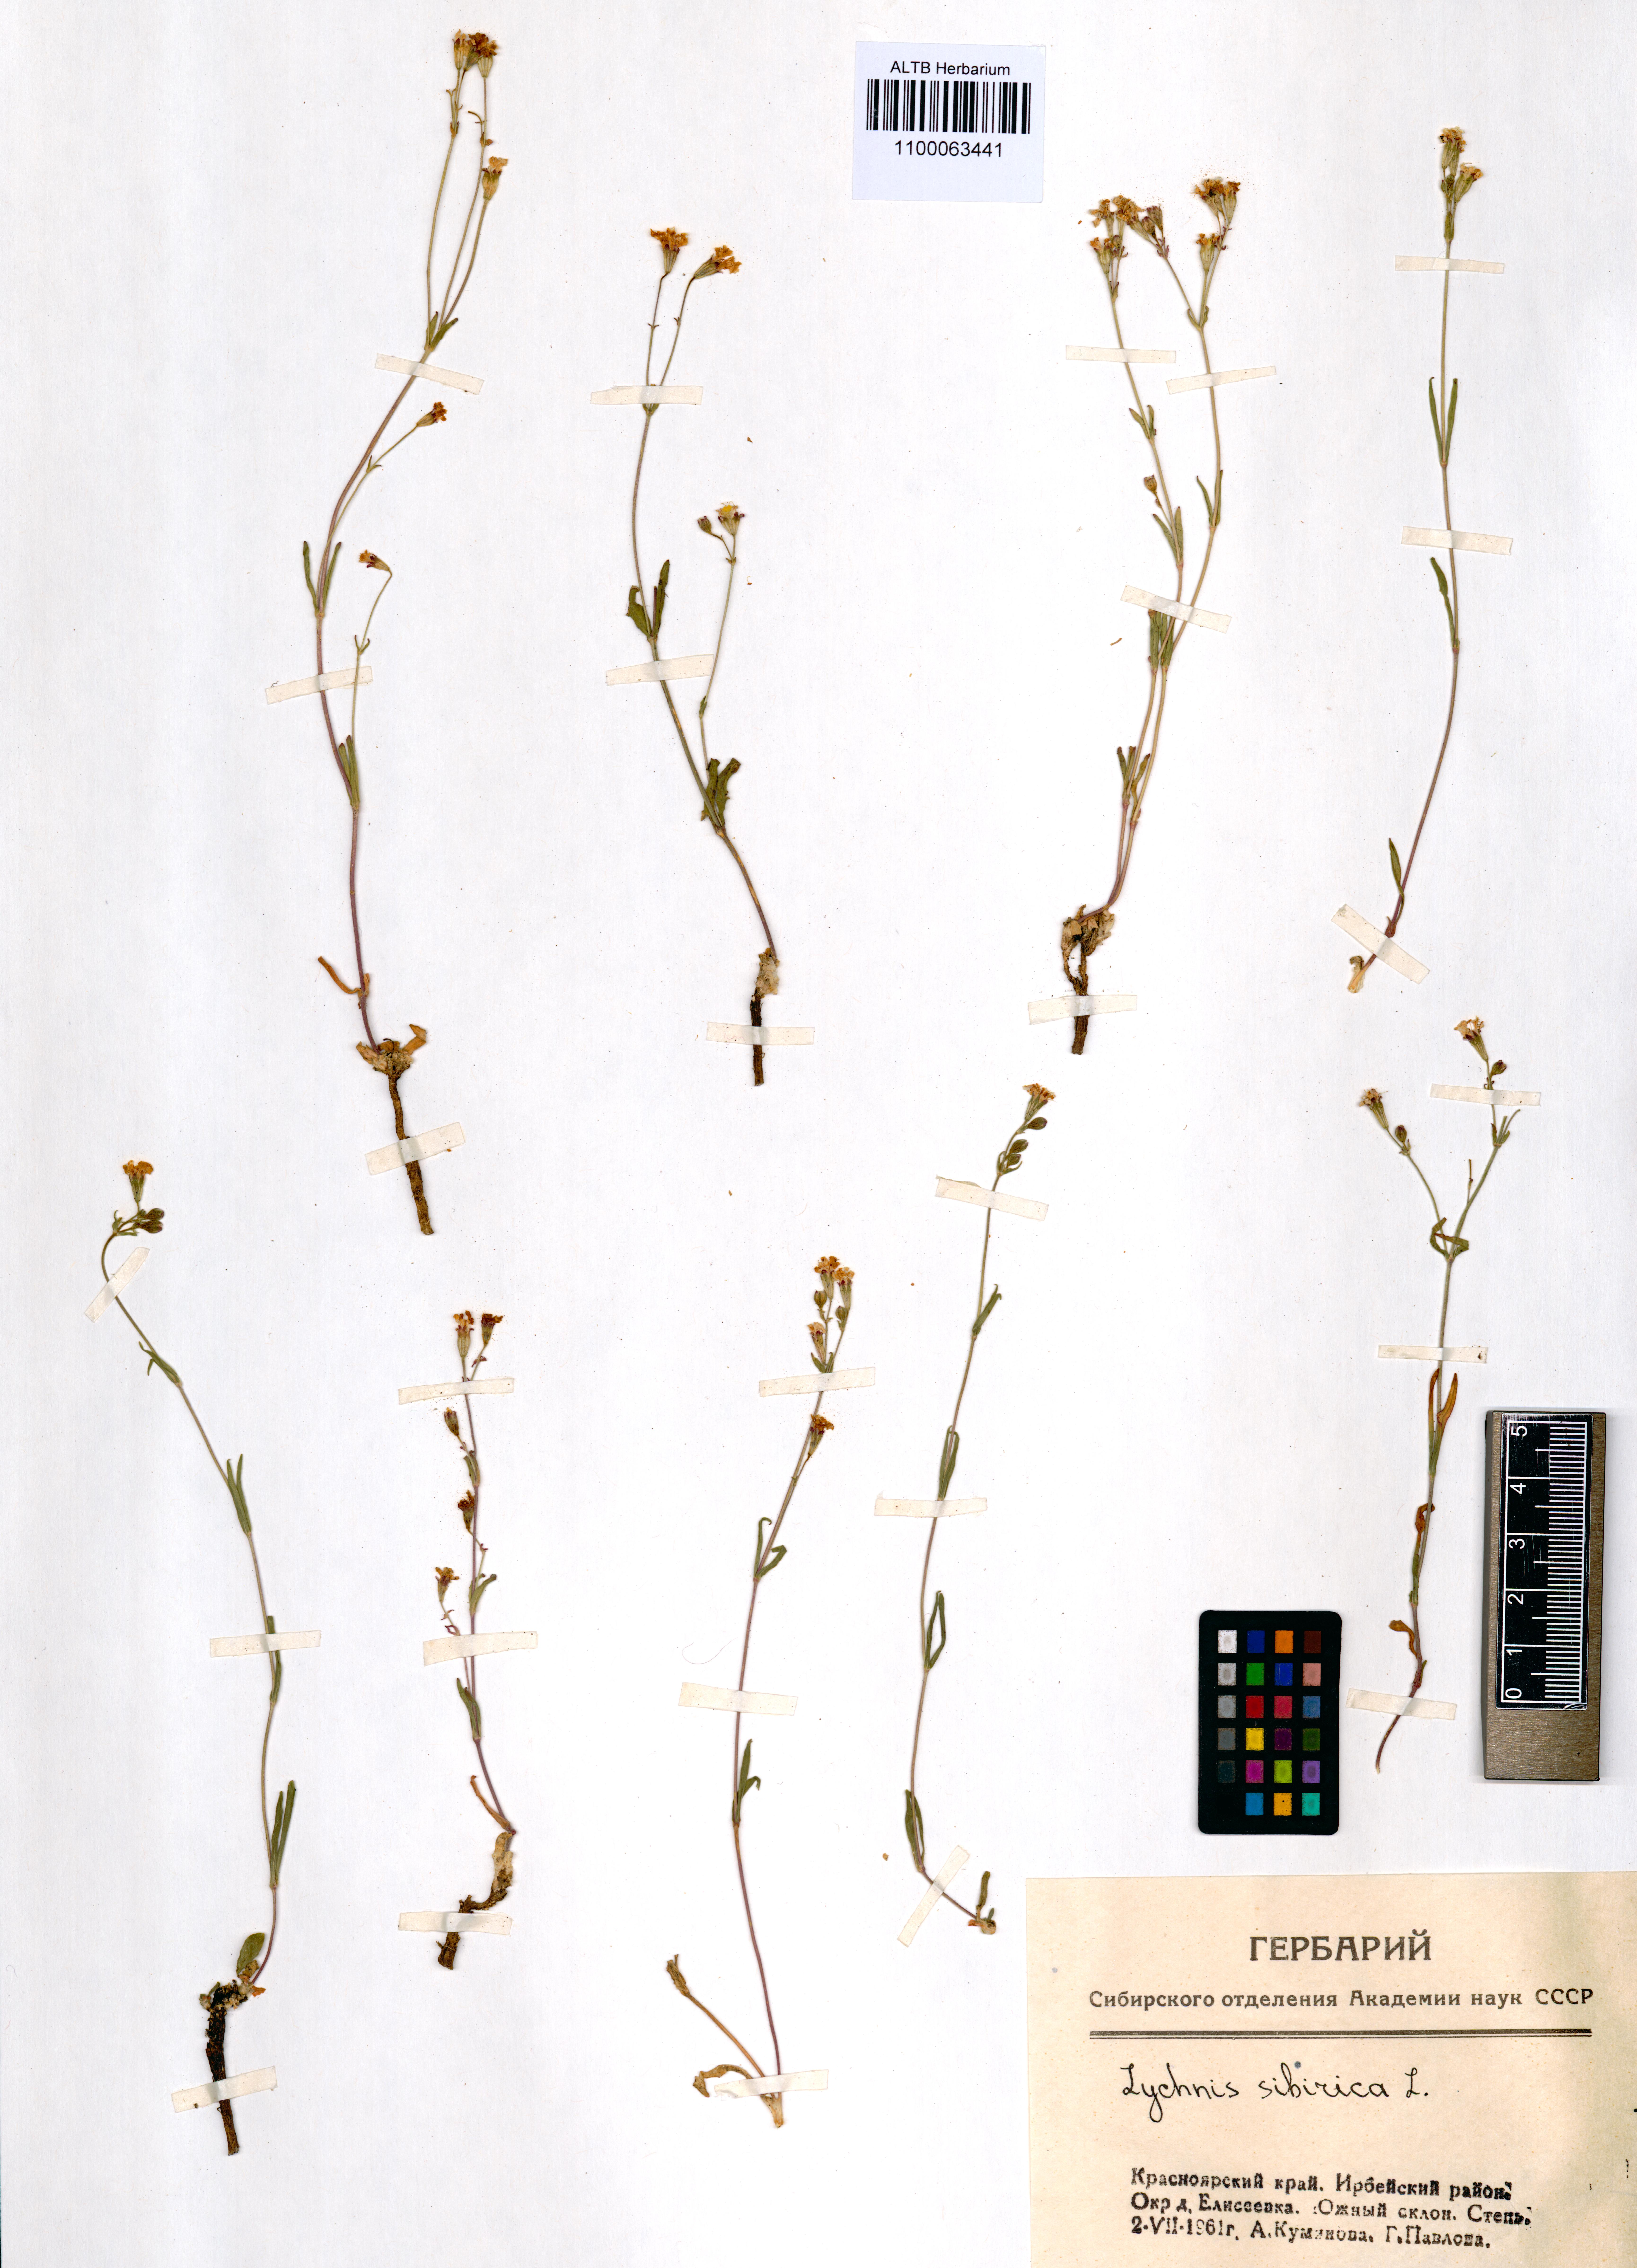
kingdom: Plantae
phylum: Tracheophyta
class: Magnoliopsida
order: Caryophyllales
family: Caryophyllaceae
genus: Silene
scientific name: Silene orientalimongolica
